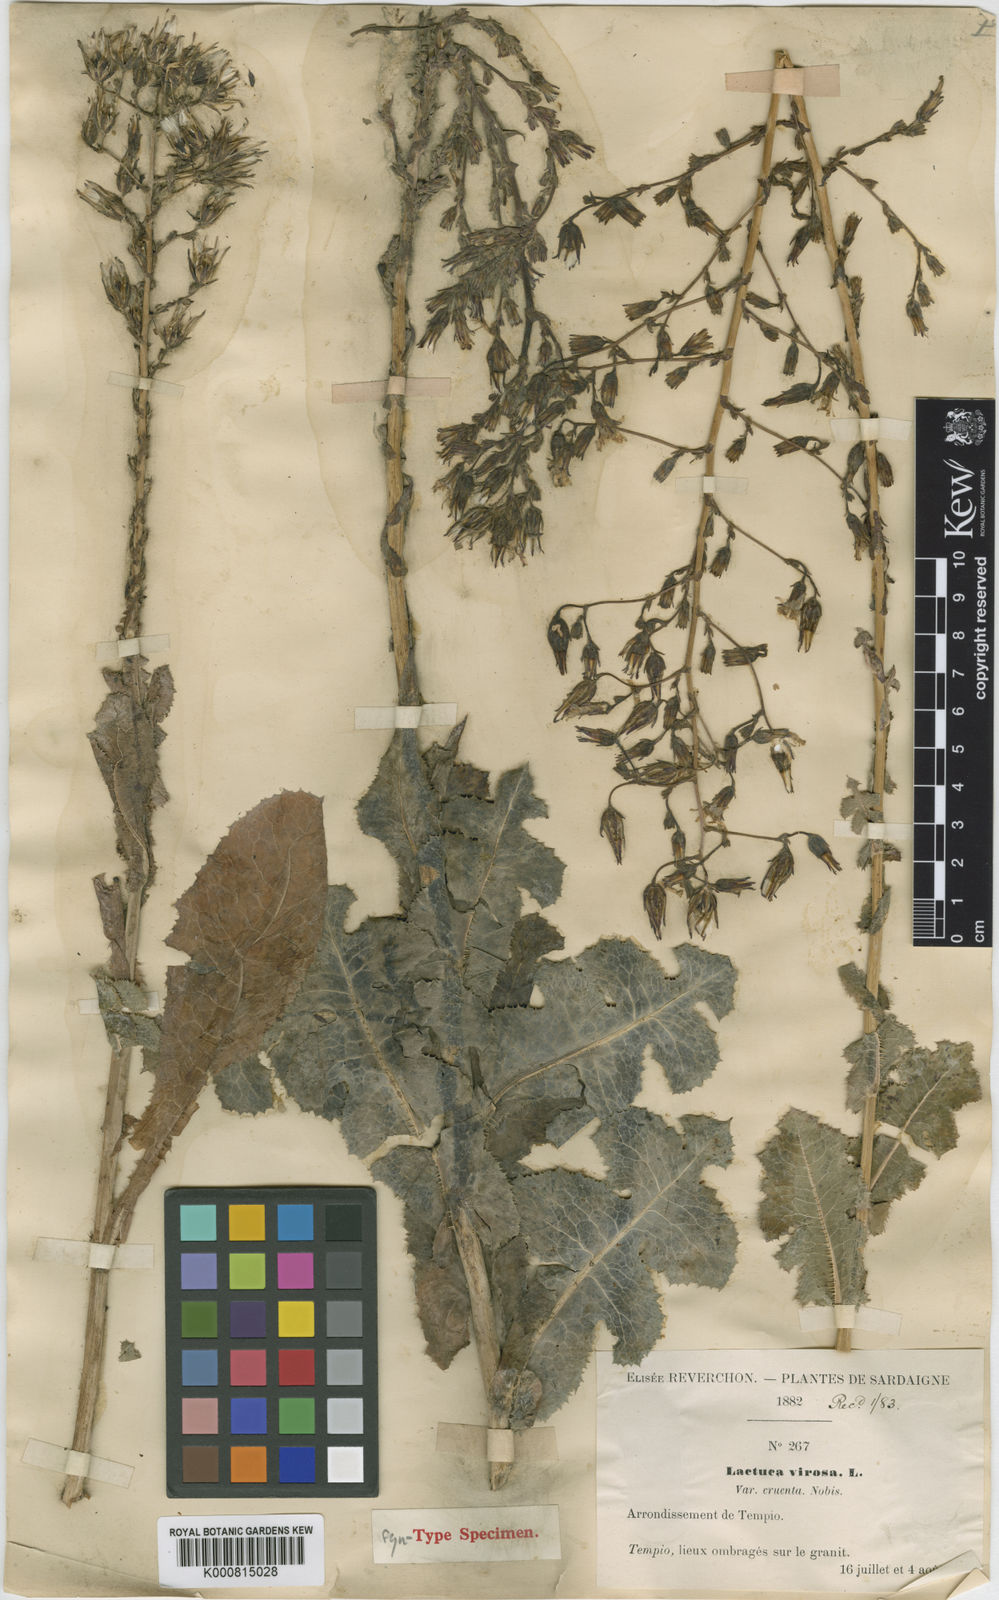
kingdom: Plantae
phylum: Tracheophyta
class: Magnoliopsida
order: Asterales
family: Asteraceae
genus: Lactuca
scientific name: Lactuca virosa
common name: Great lettuce
